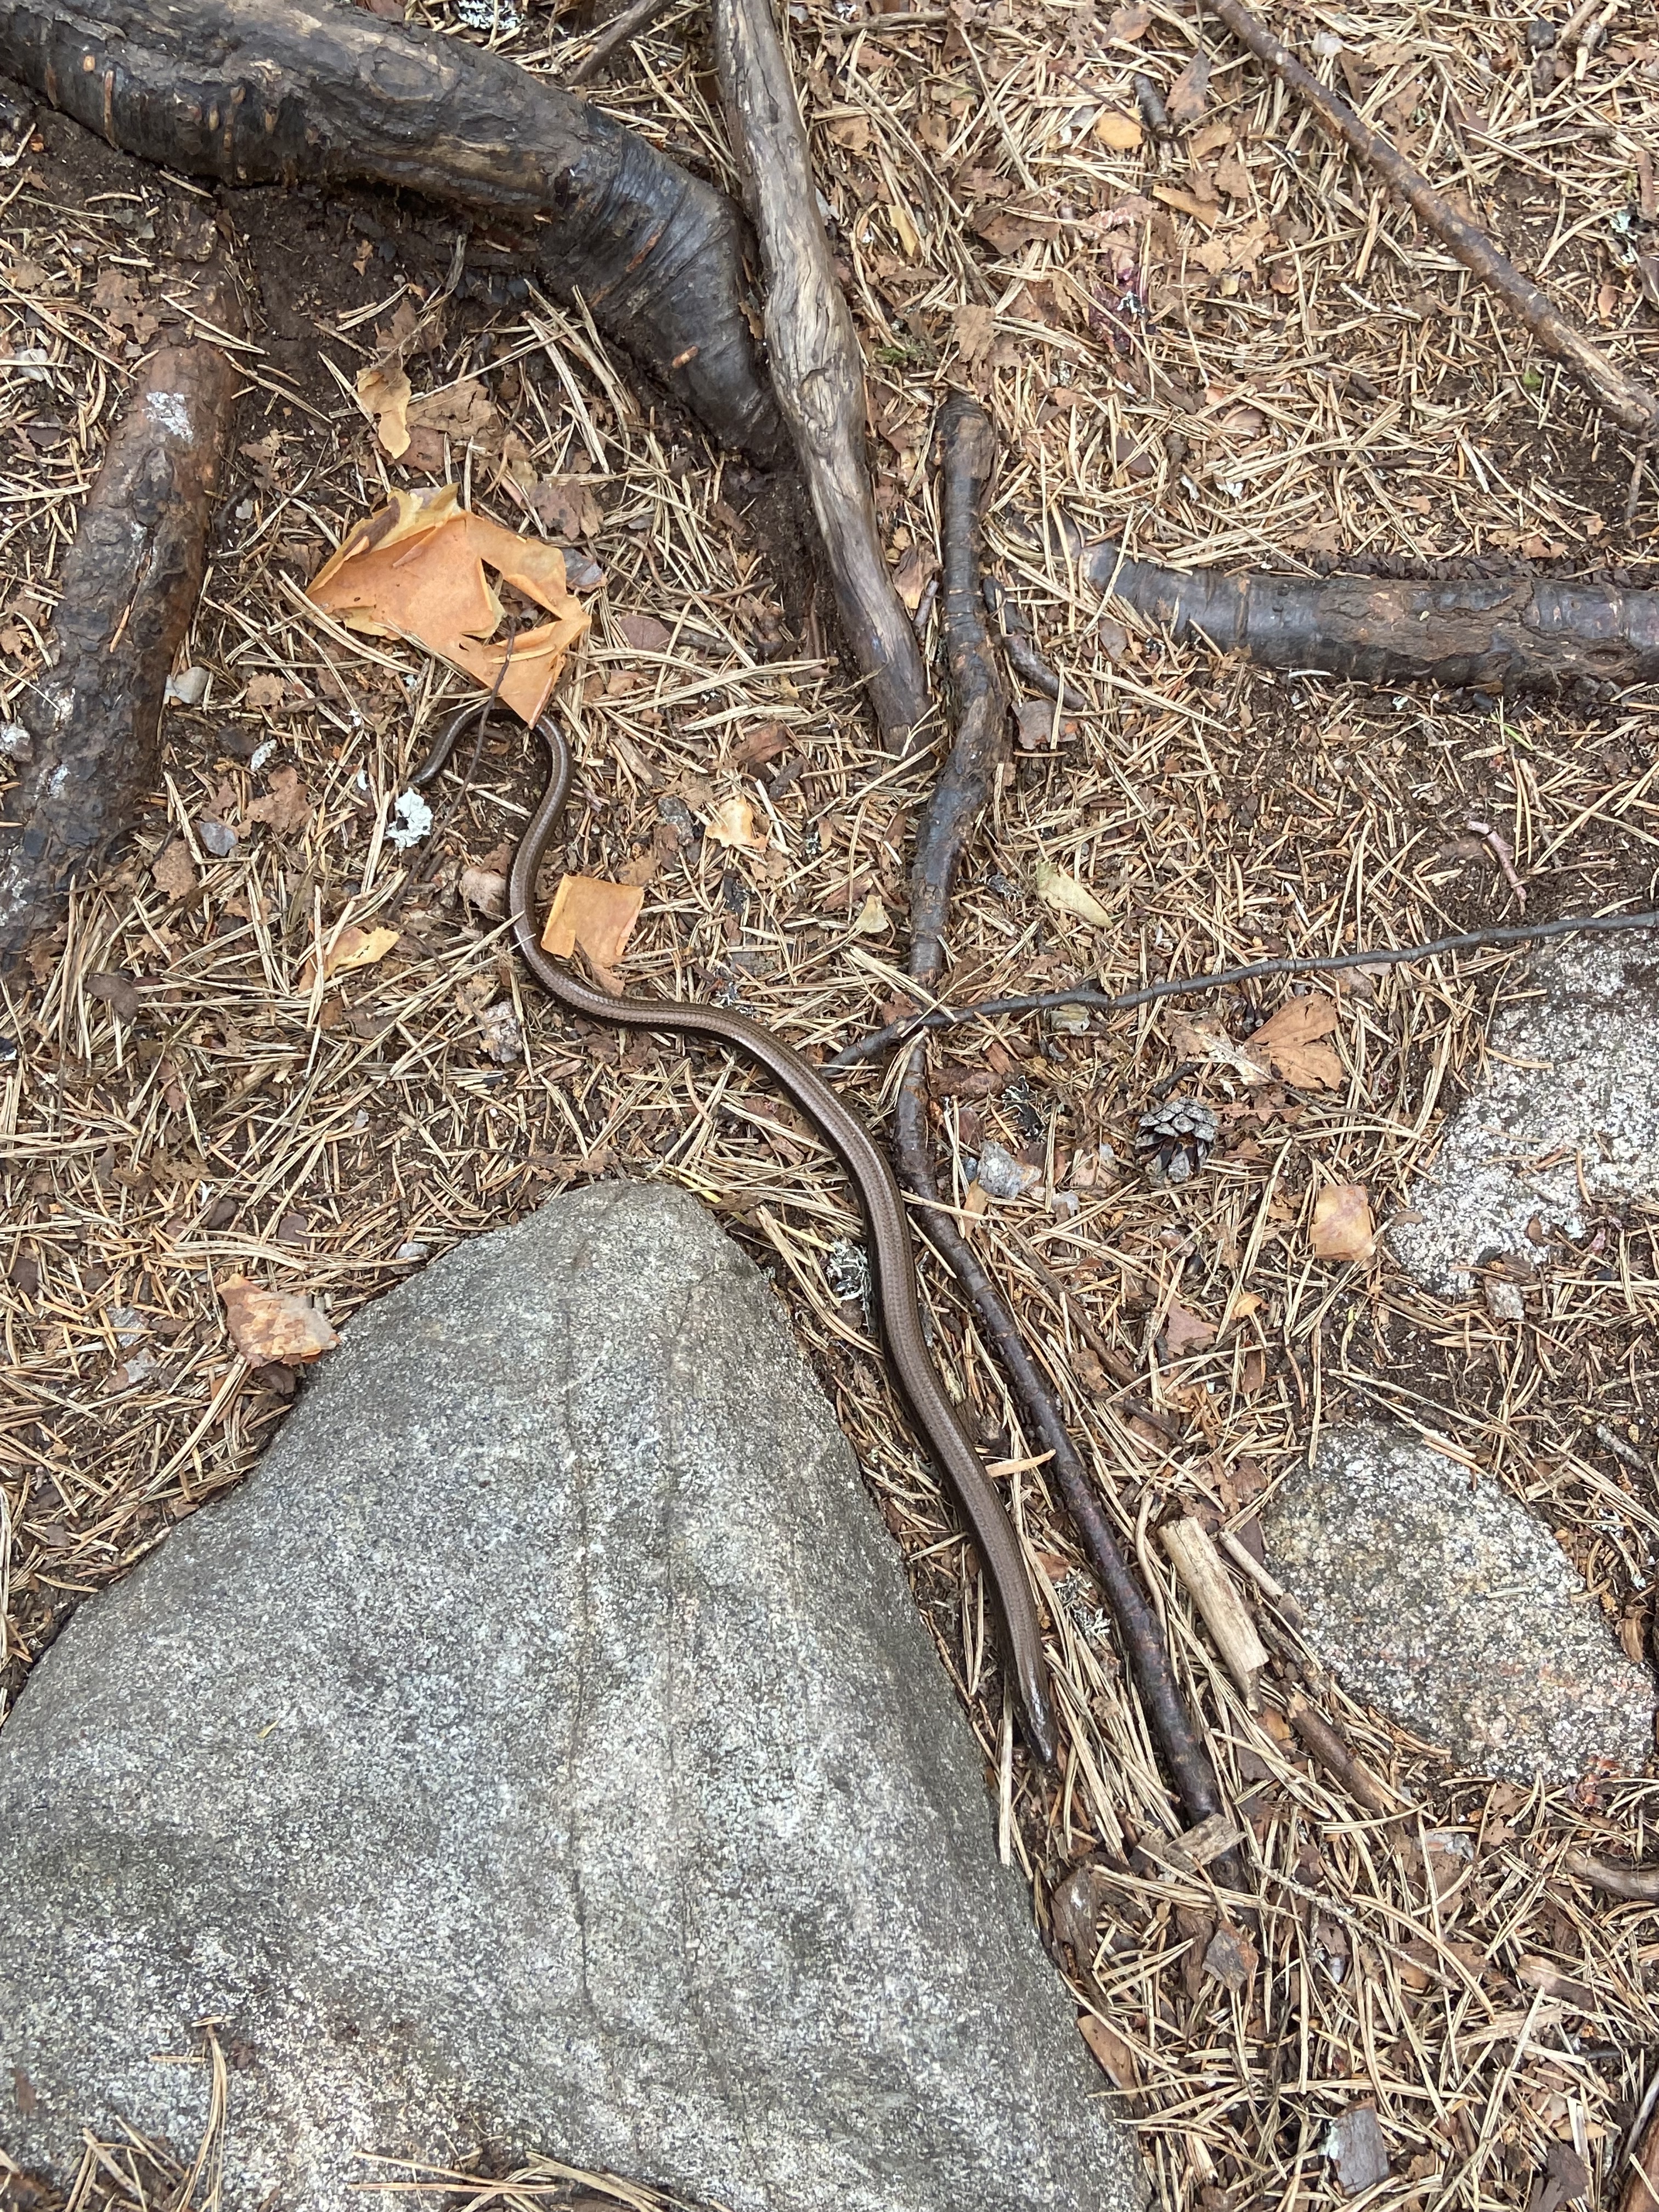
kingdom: Animalia
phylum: Chordata
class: Squamata
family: Anguidae
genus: Anguis
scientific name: Anguis colchica
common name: Slow worm
